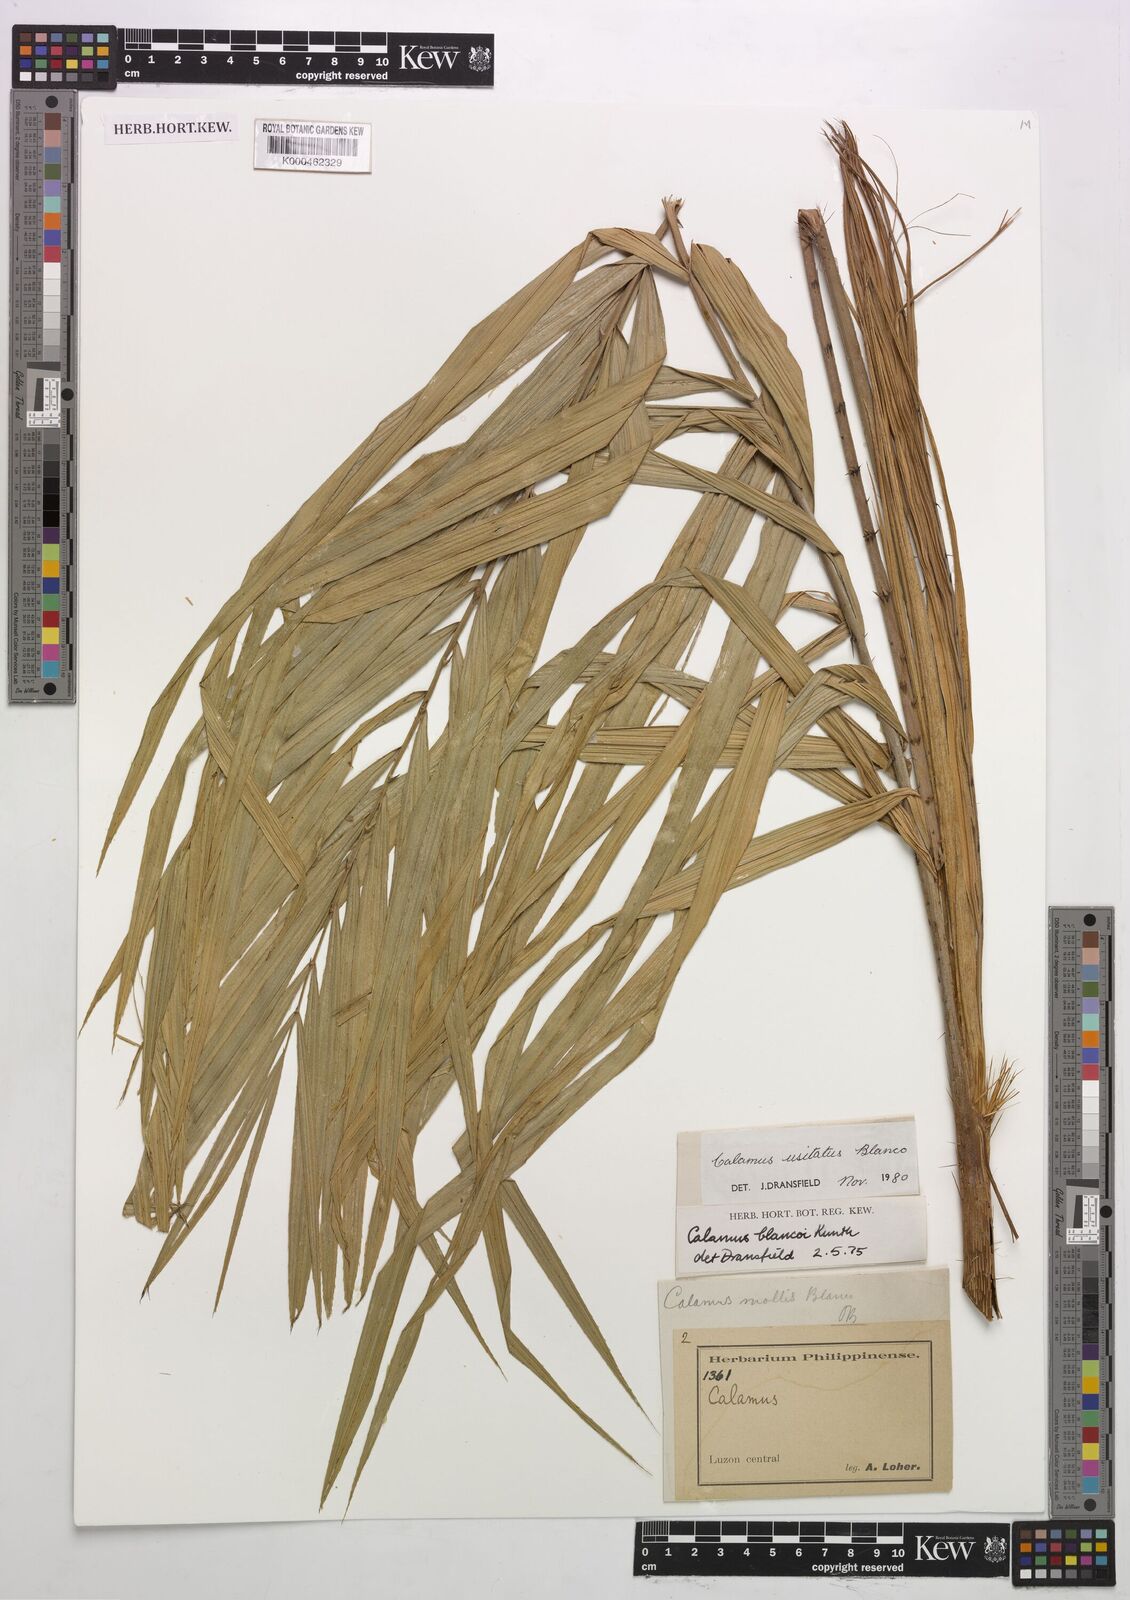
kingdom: Plantae
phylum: Tracheophyta
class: Liliopsida
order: Arecales
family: Arecaceae
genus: Calamus
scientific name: Calamus usitatus
